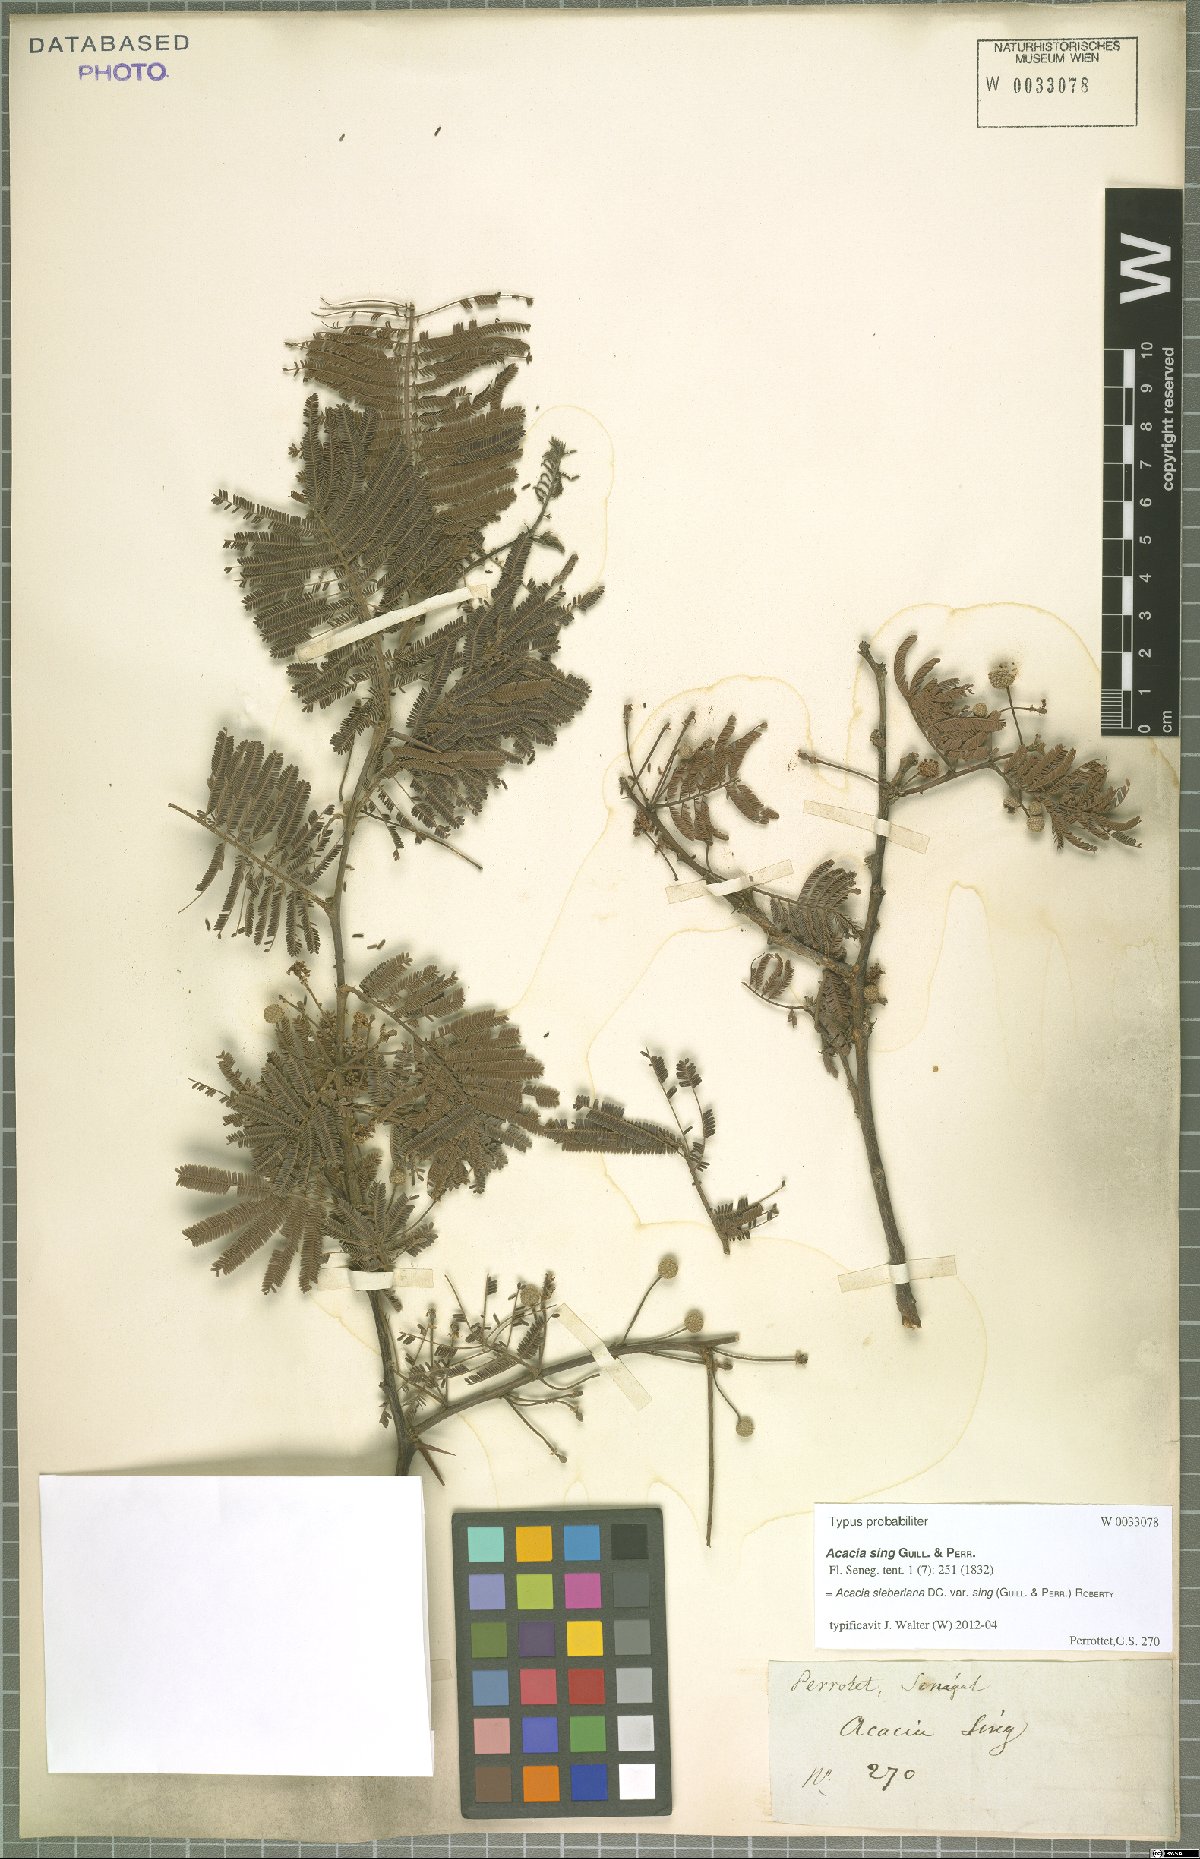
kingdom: Plantae
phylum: Tracheophyta
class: Magnoliopsida
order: Fabales
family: Fabaceae
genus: Vachellia
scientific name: Vachellia sieberiana
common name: Flat-topped thorn
